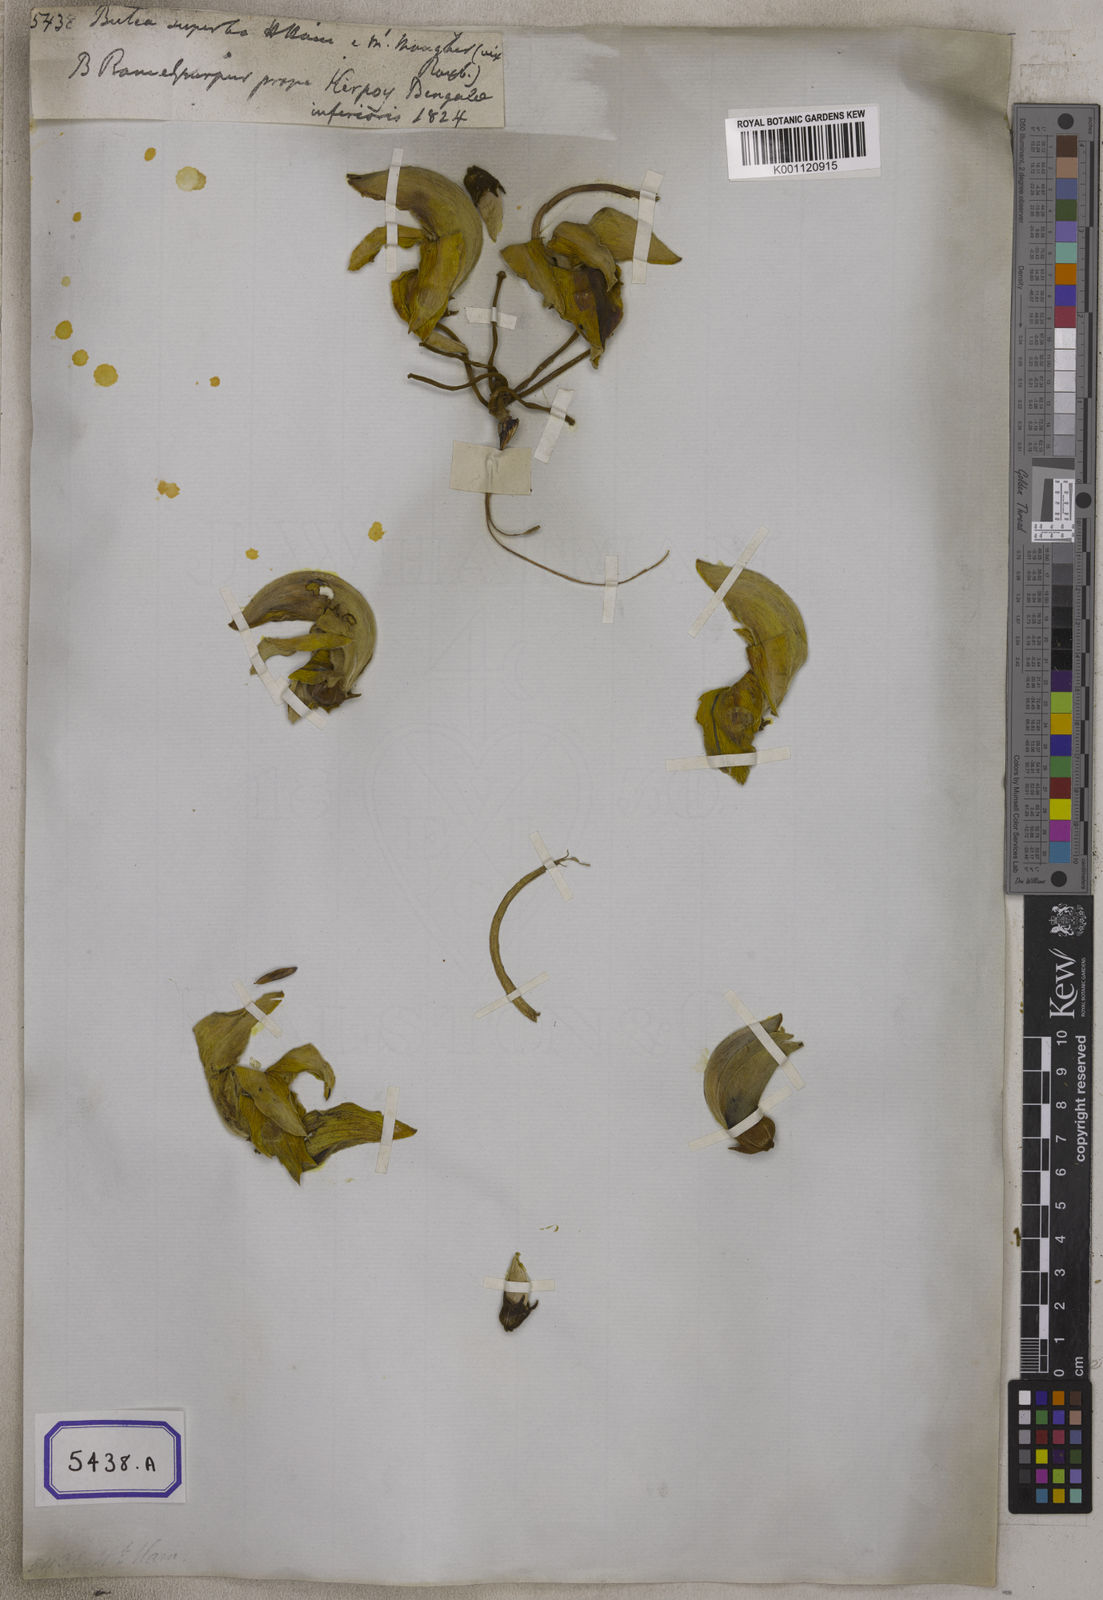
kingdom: Plantae
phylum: Tracheophyta
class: Magnoliopsida
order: Fabales
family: Fabaceae
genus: Butea
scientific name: Butea
